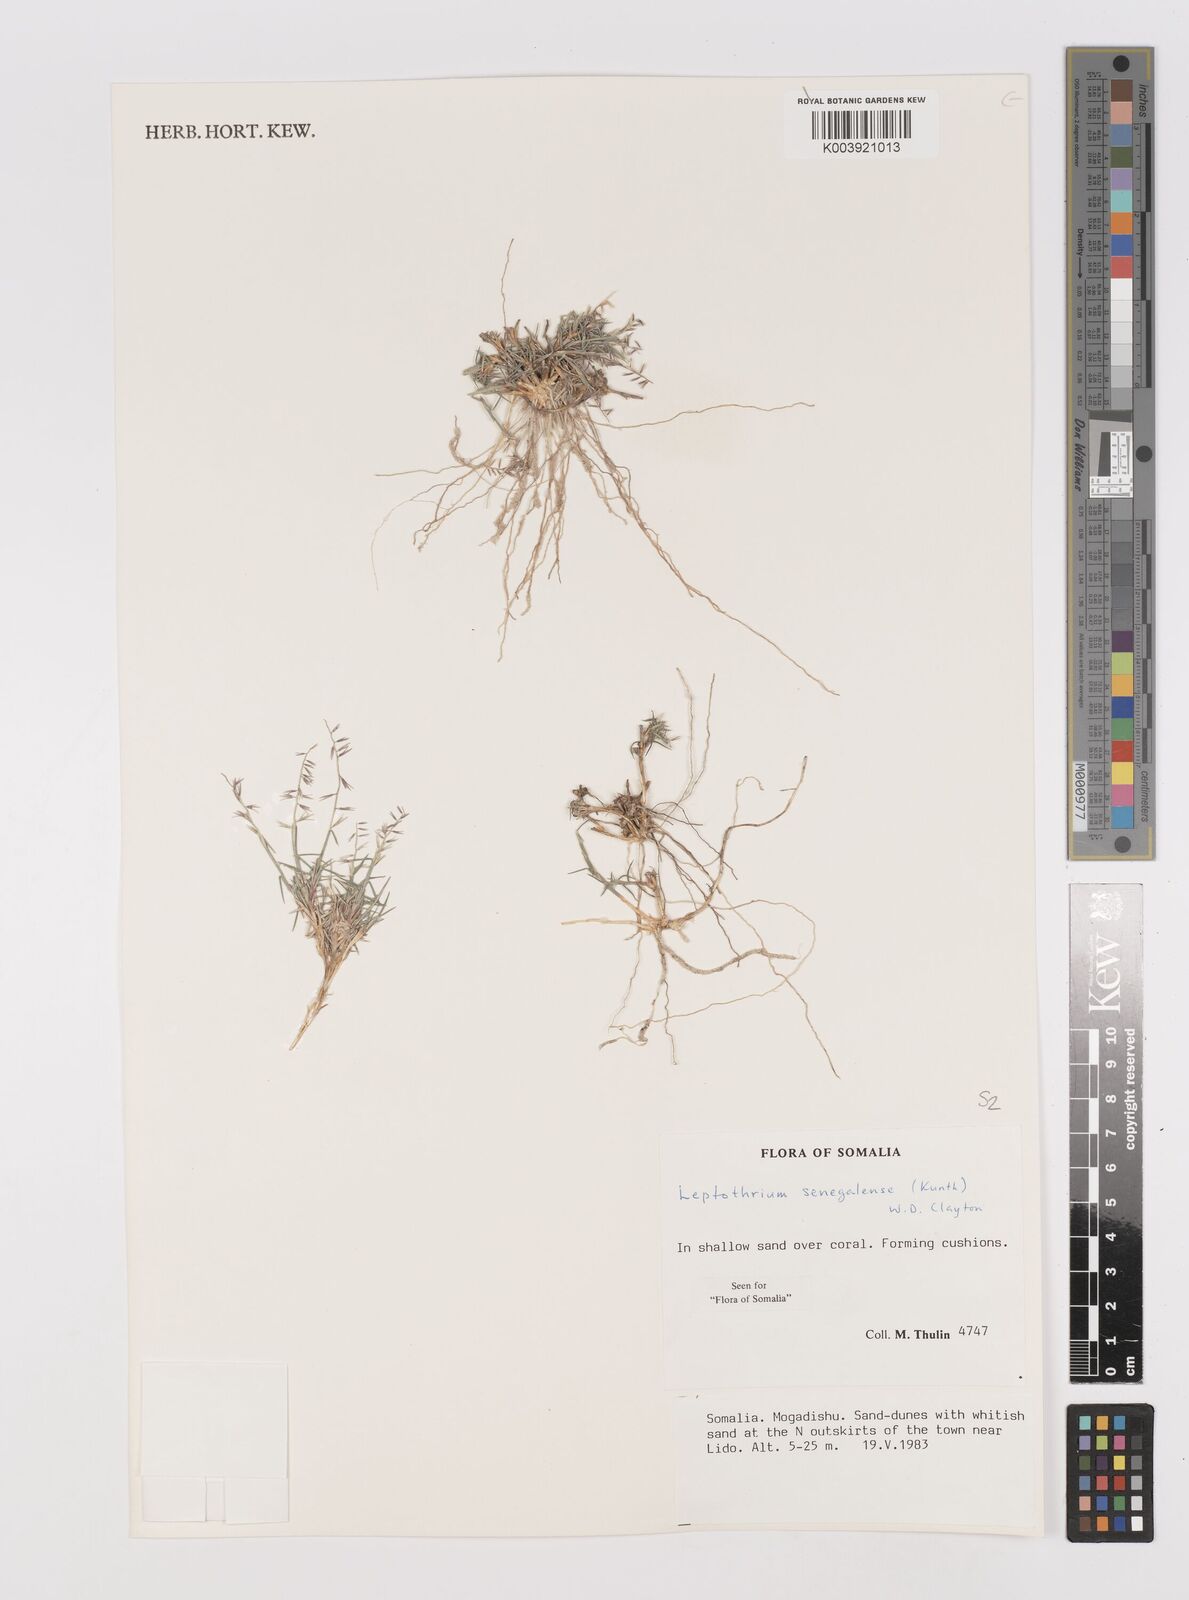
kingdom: Plantae
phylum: Tracheophyta
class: Liliopsida
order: Poales
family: Poaceae
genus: Leptothrium
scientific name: Leptothrium senegalense
